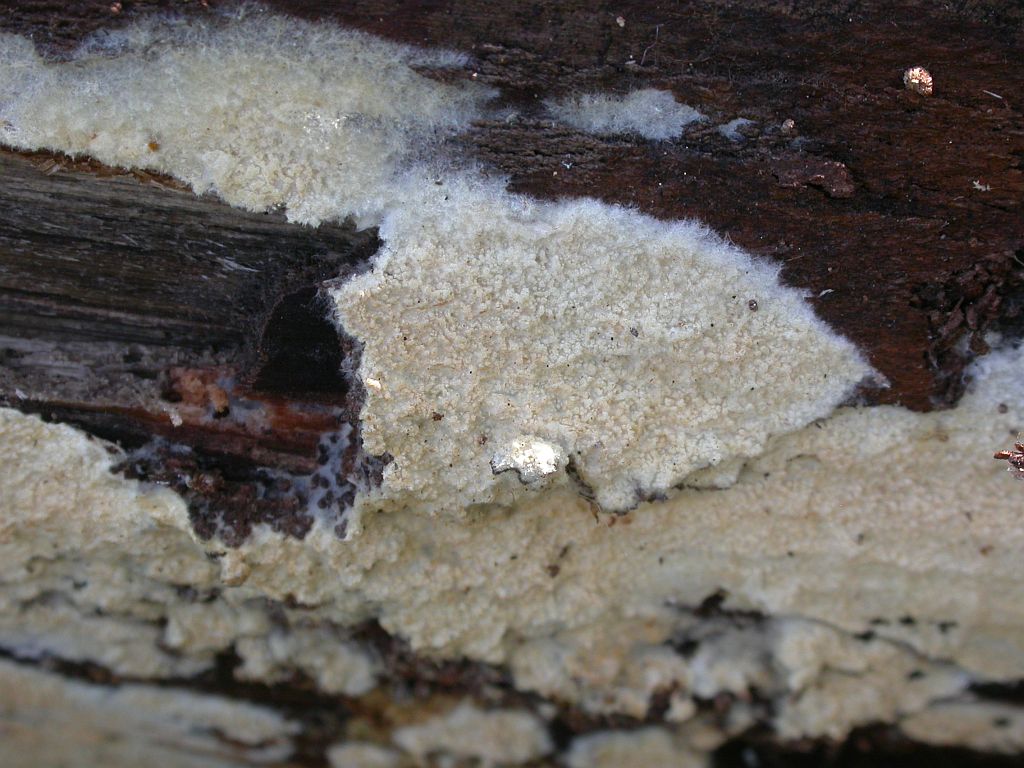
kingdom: Fungi
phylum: Basidiomycota
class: Agaricomycetes
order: Hymenochaetales
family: Hyphodontiaceae
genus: Hyphodontia
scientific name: Hyphodontia barba-jovis
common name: skægget tandsvamp
